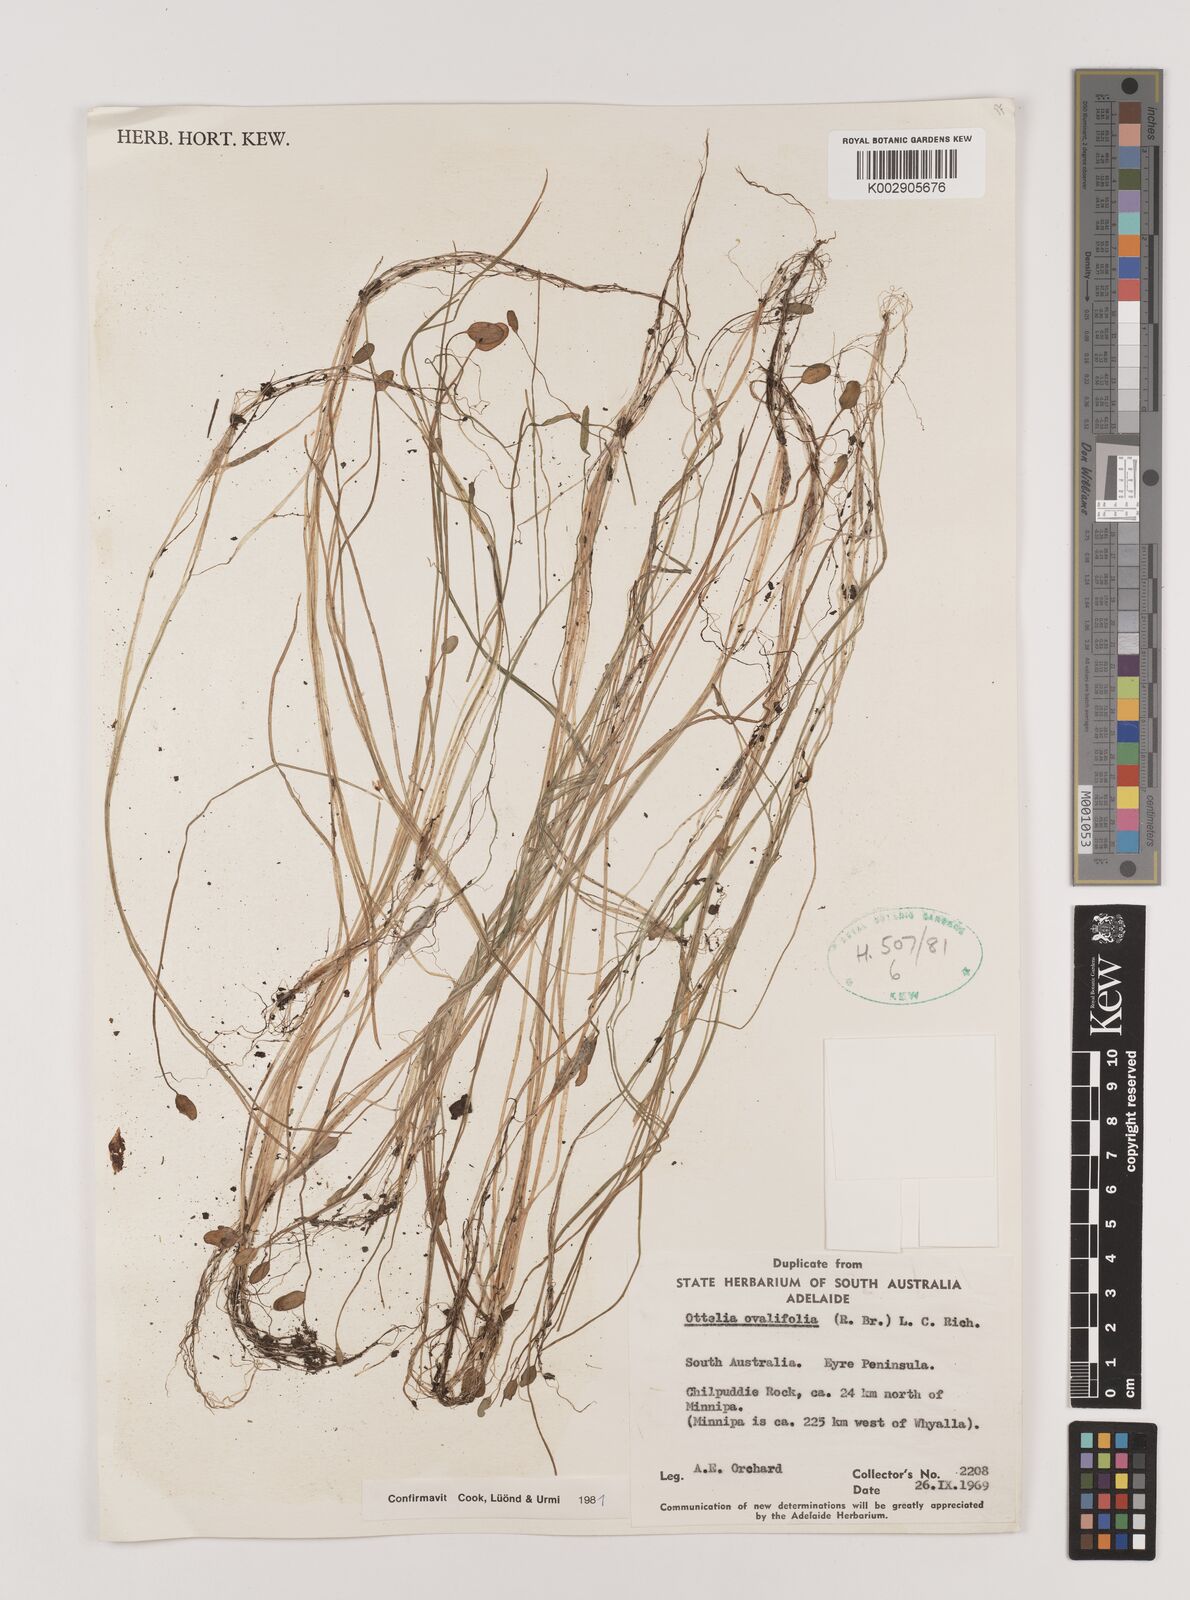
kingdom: Plantae
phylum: Tracheophyta
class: Liliopsida
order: Alismatales
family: Hydrocharitaceae
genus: Ottelia
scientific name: Ottelia ovalifolia
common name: Swamp-lily
